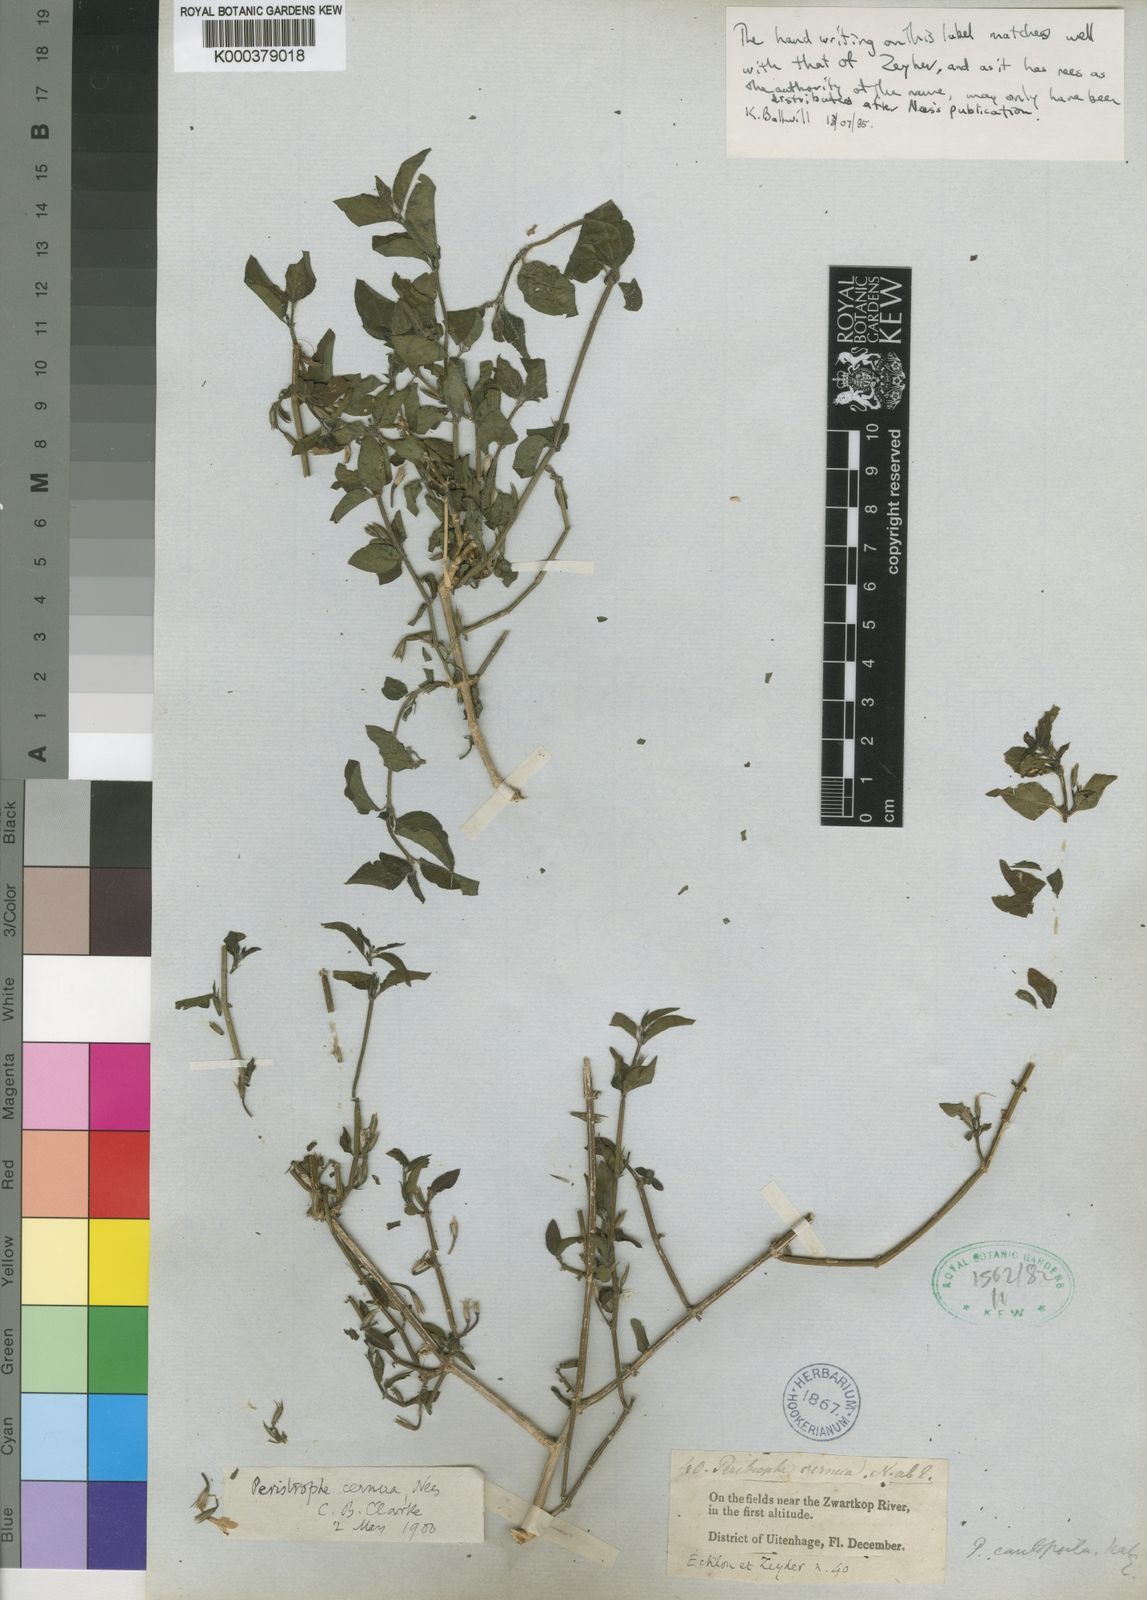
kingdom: Plantae
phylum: Tracheophyta
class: Magnoliopsida
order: Lamiales
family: Acanthaceae
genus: Dicliptera
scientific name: Dicliptera cernua
